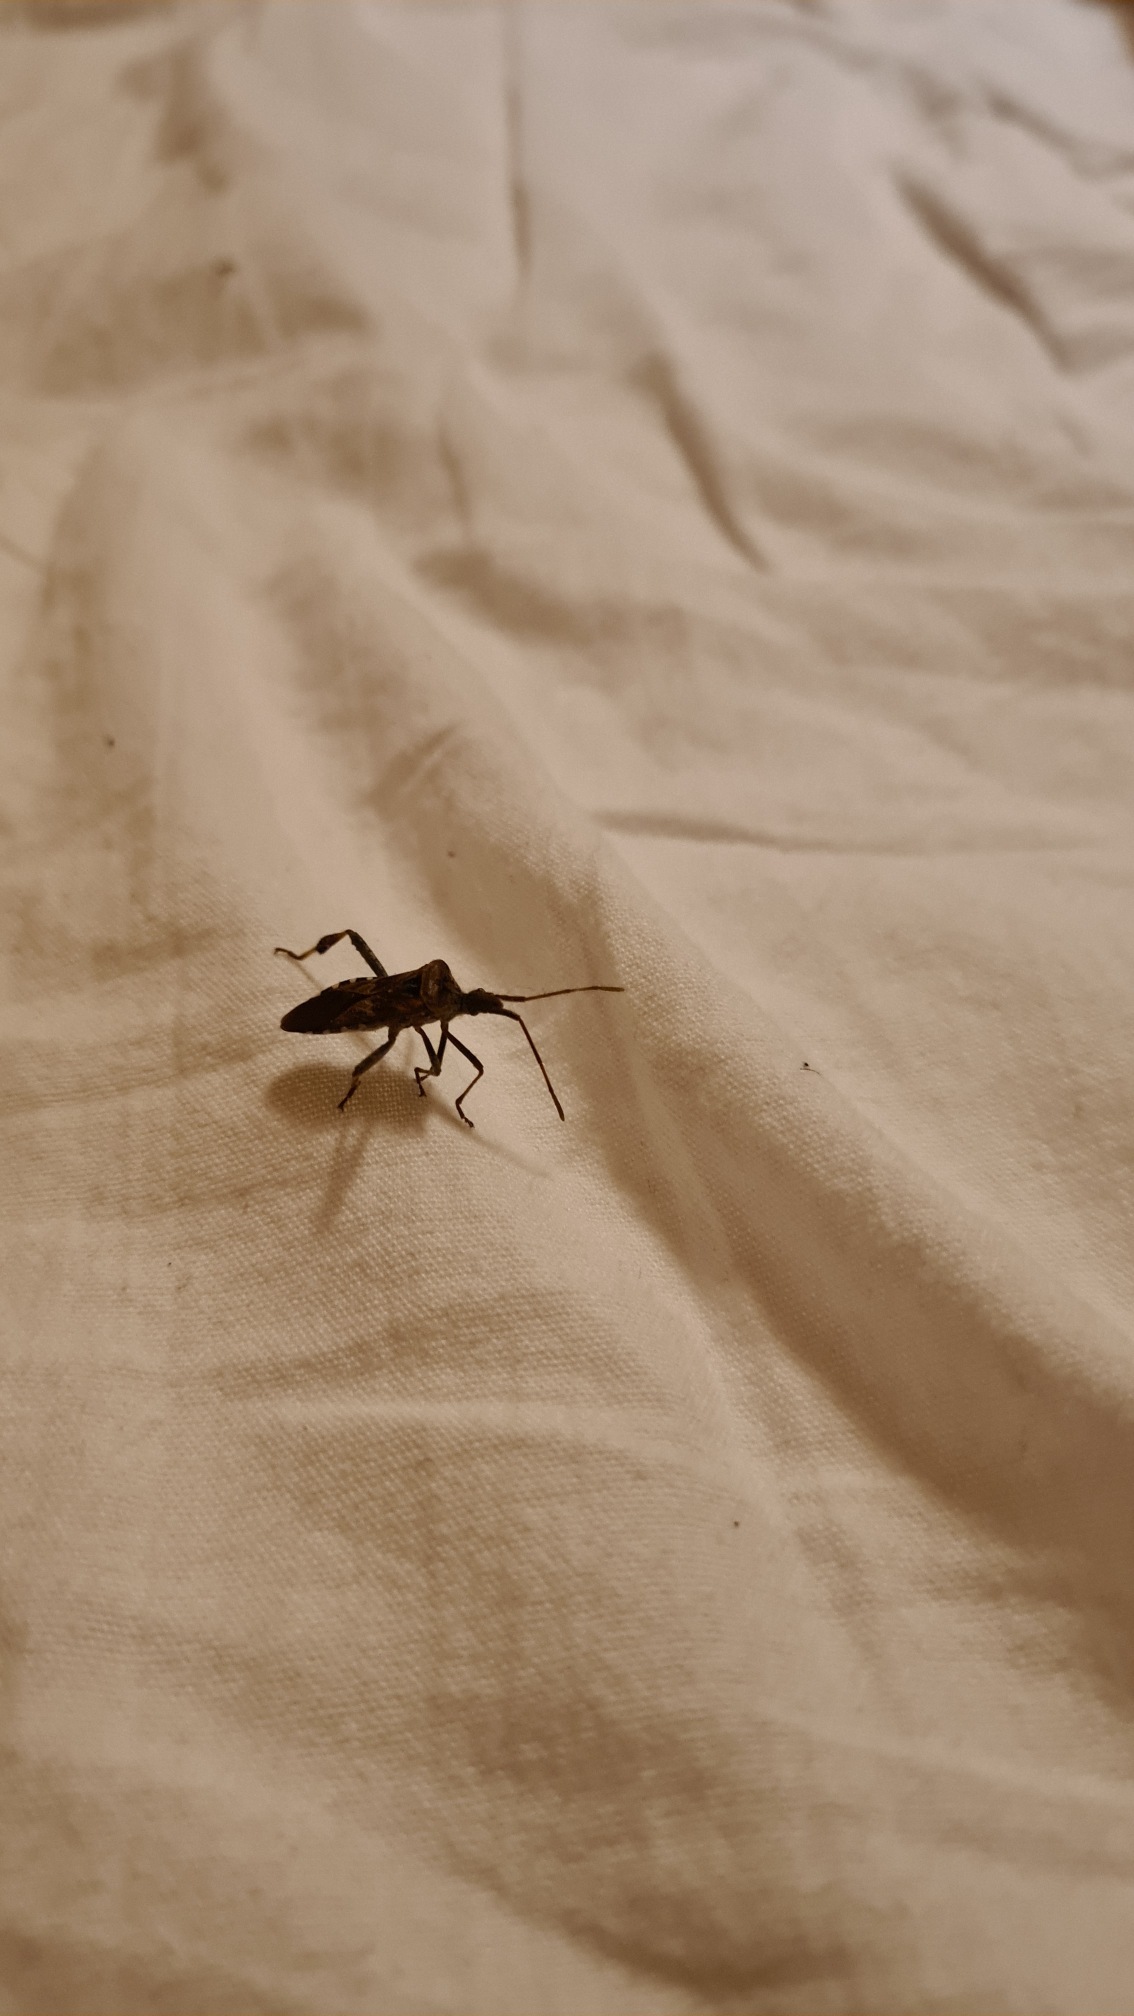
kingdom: Animalia
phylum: Arthropoda
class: Insecta
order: Hemiptera
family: Coreidae
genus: Leptoglossus
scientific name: Leptoglossus occidentalis
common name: Amerikansk fyrretæge
